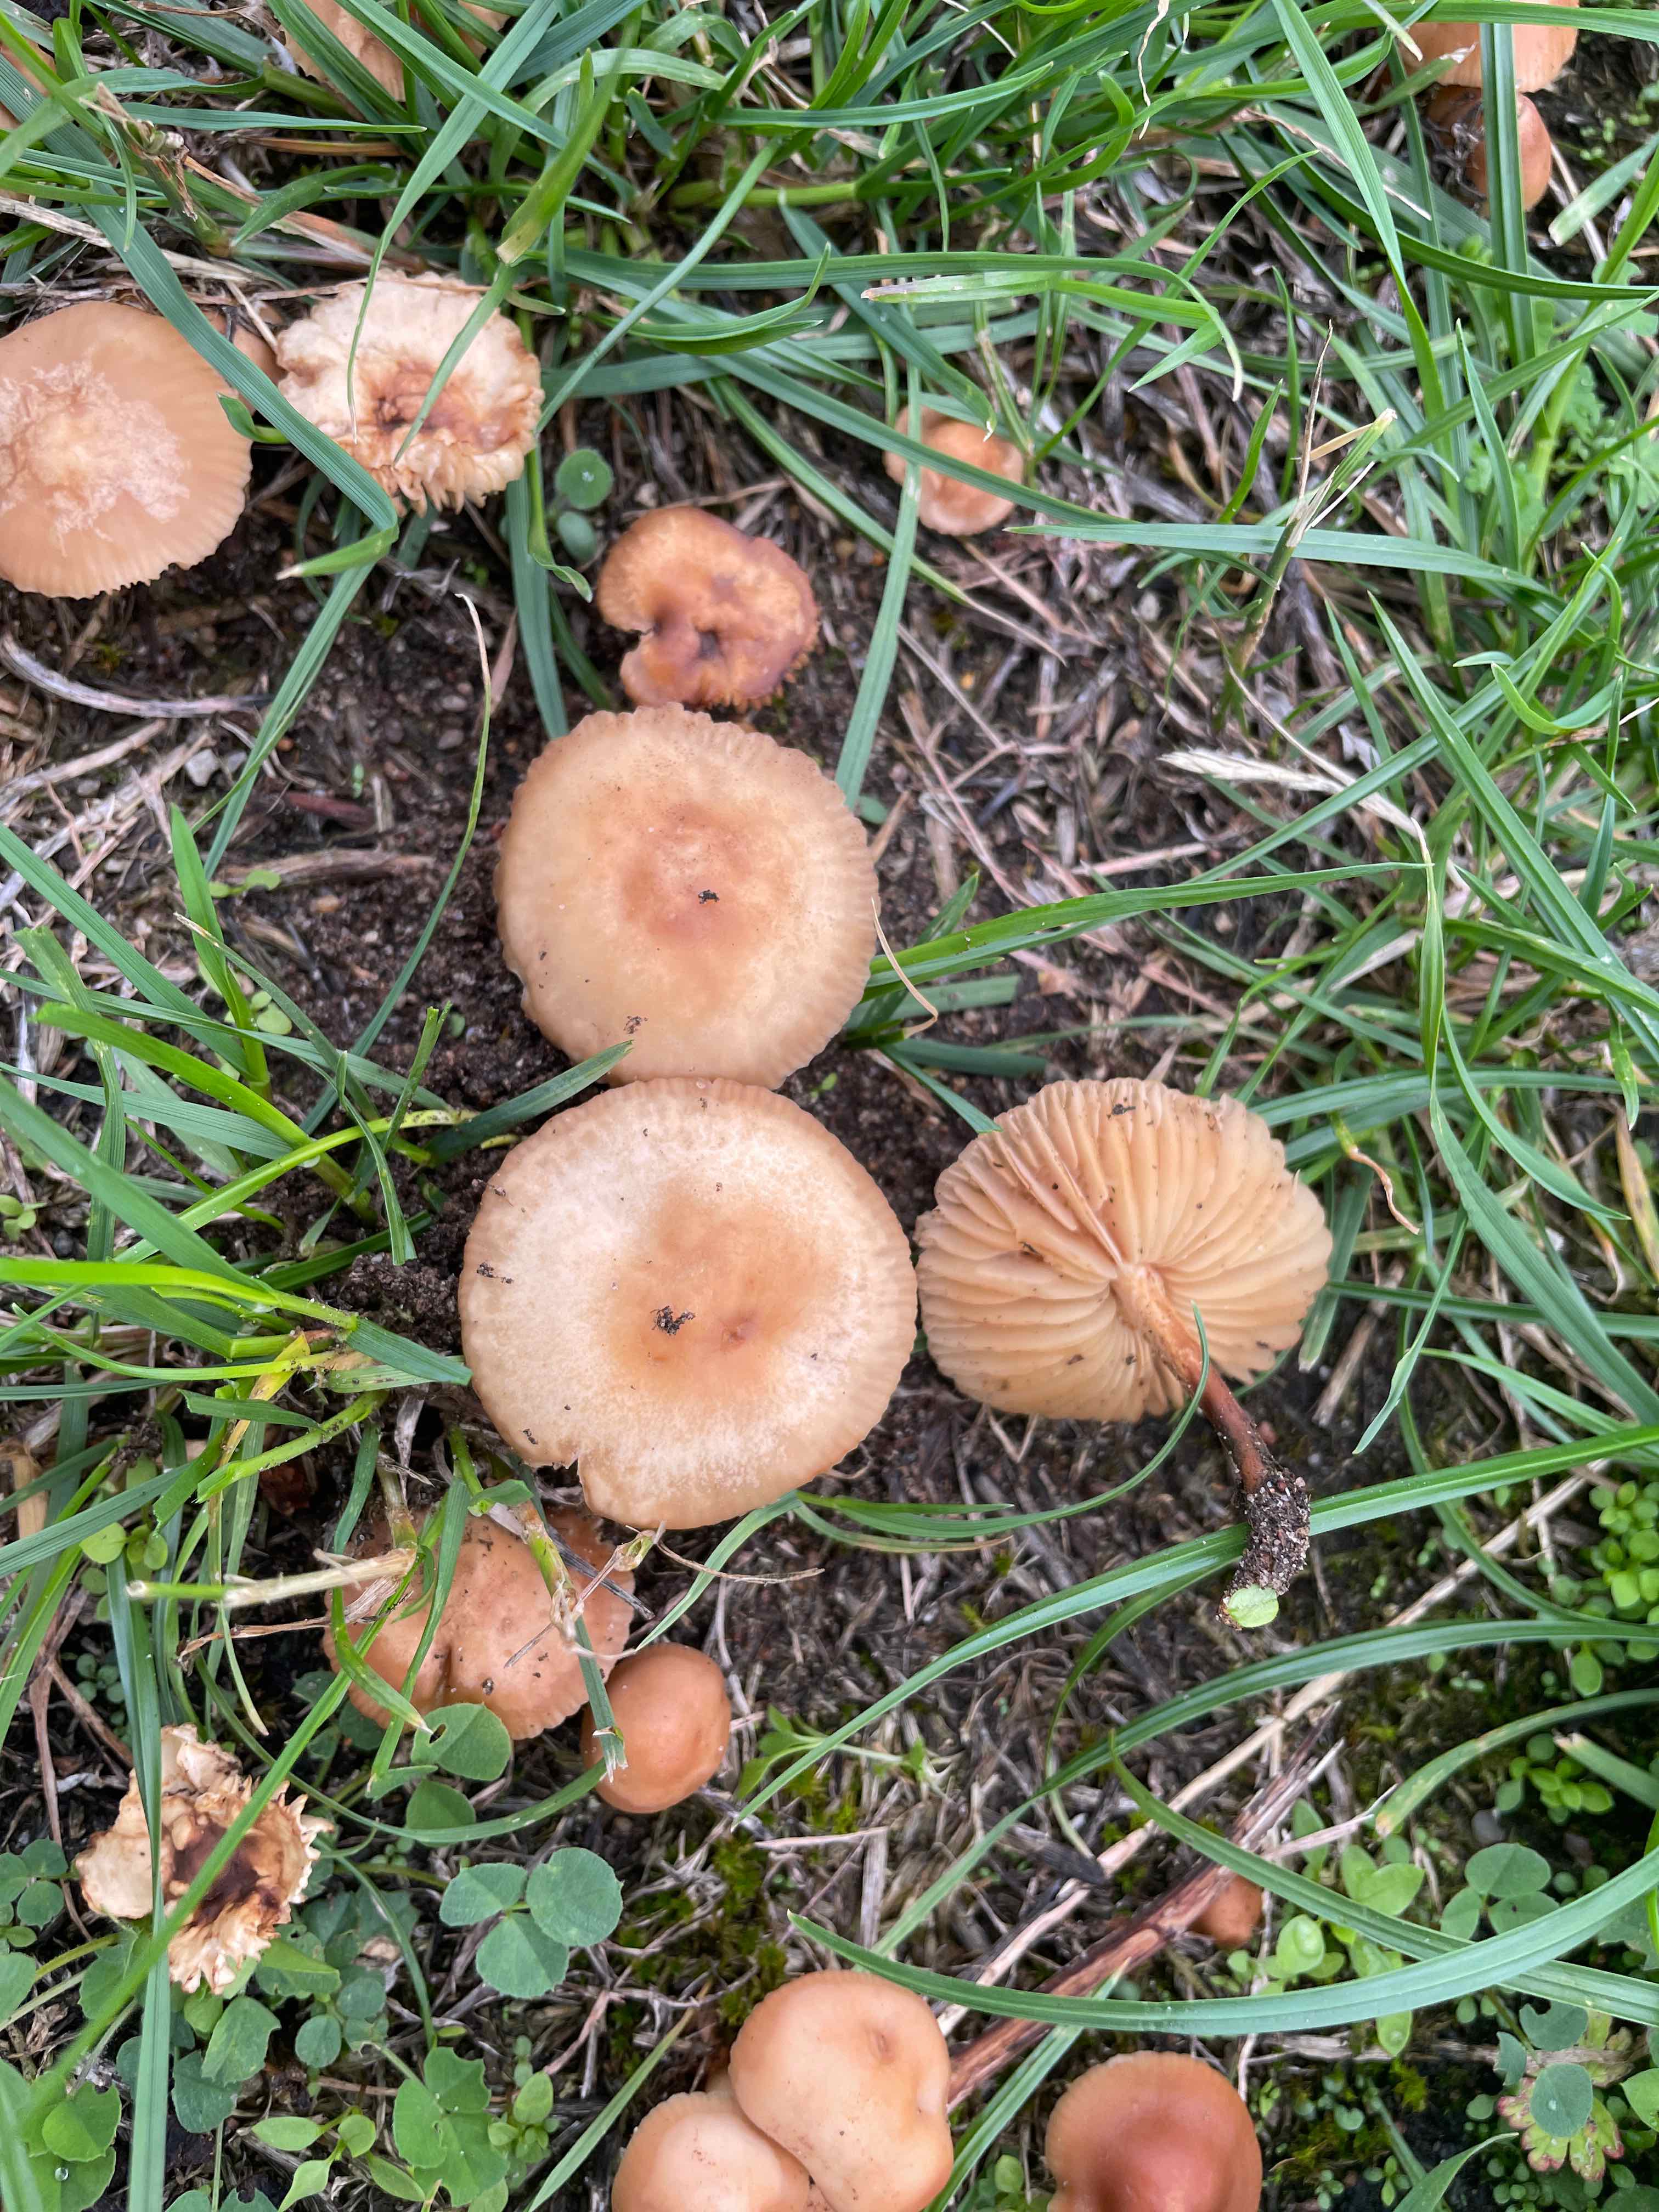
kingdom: Fungi
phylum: Basidiomycota
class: Agaricomycetes
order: Agaricales
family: Marasmiaceae
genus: Marasmius
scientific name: Marasmius oreades
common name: elledans-bruskhat
